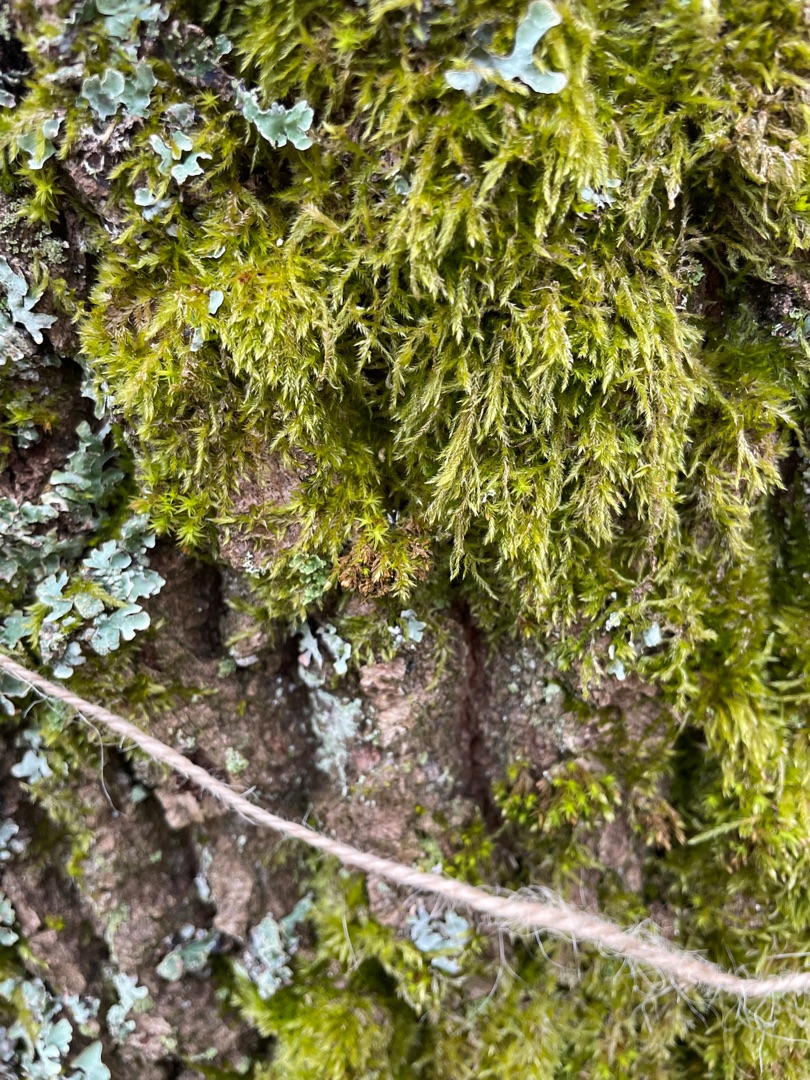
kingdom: Plantae
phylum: Bryophyta
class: Bryopsida
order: Hypnales
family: Hypnaceae
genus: Hypnum
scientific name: Hypnum cupressiforme
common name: Almindelig cypresmos
